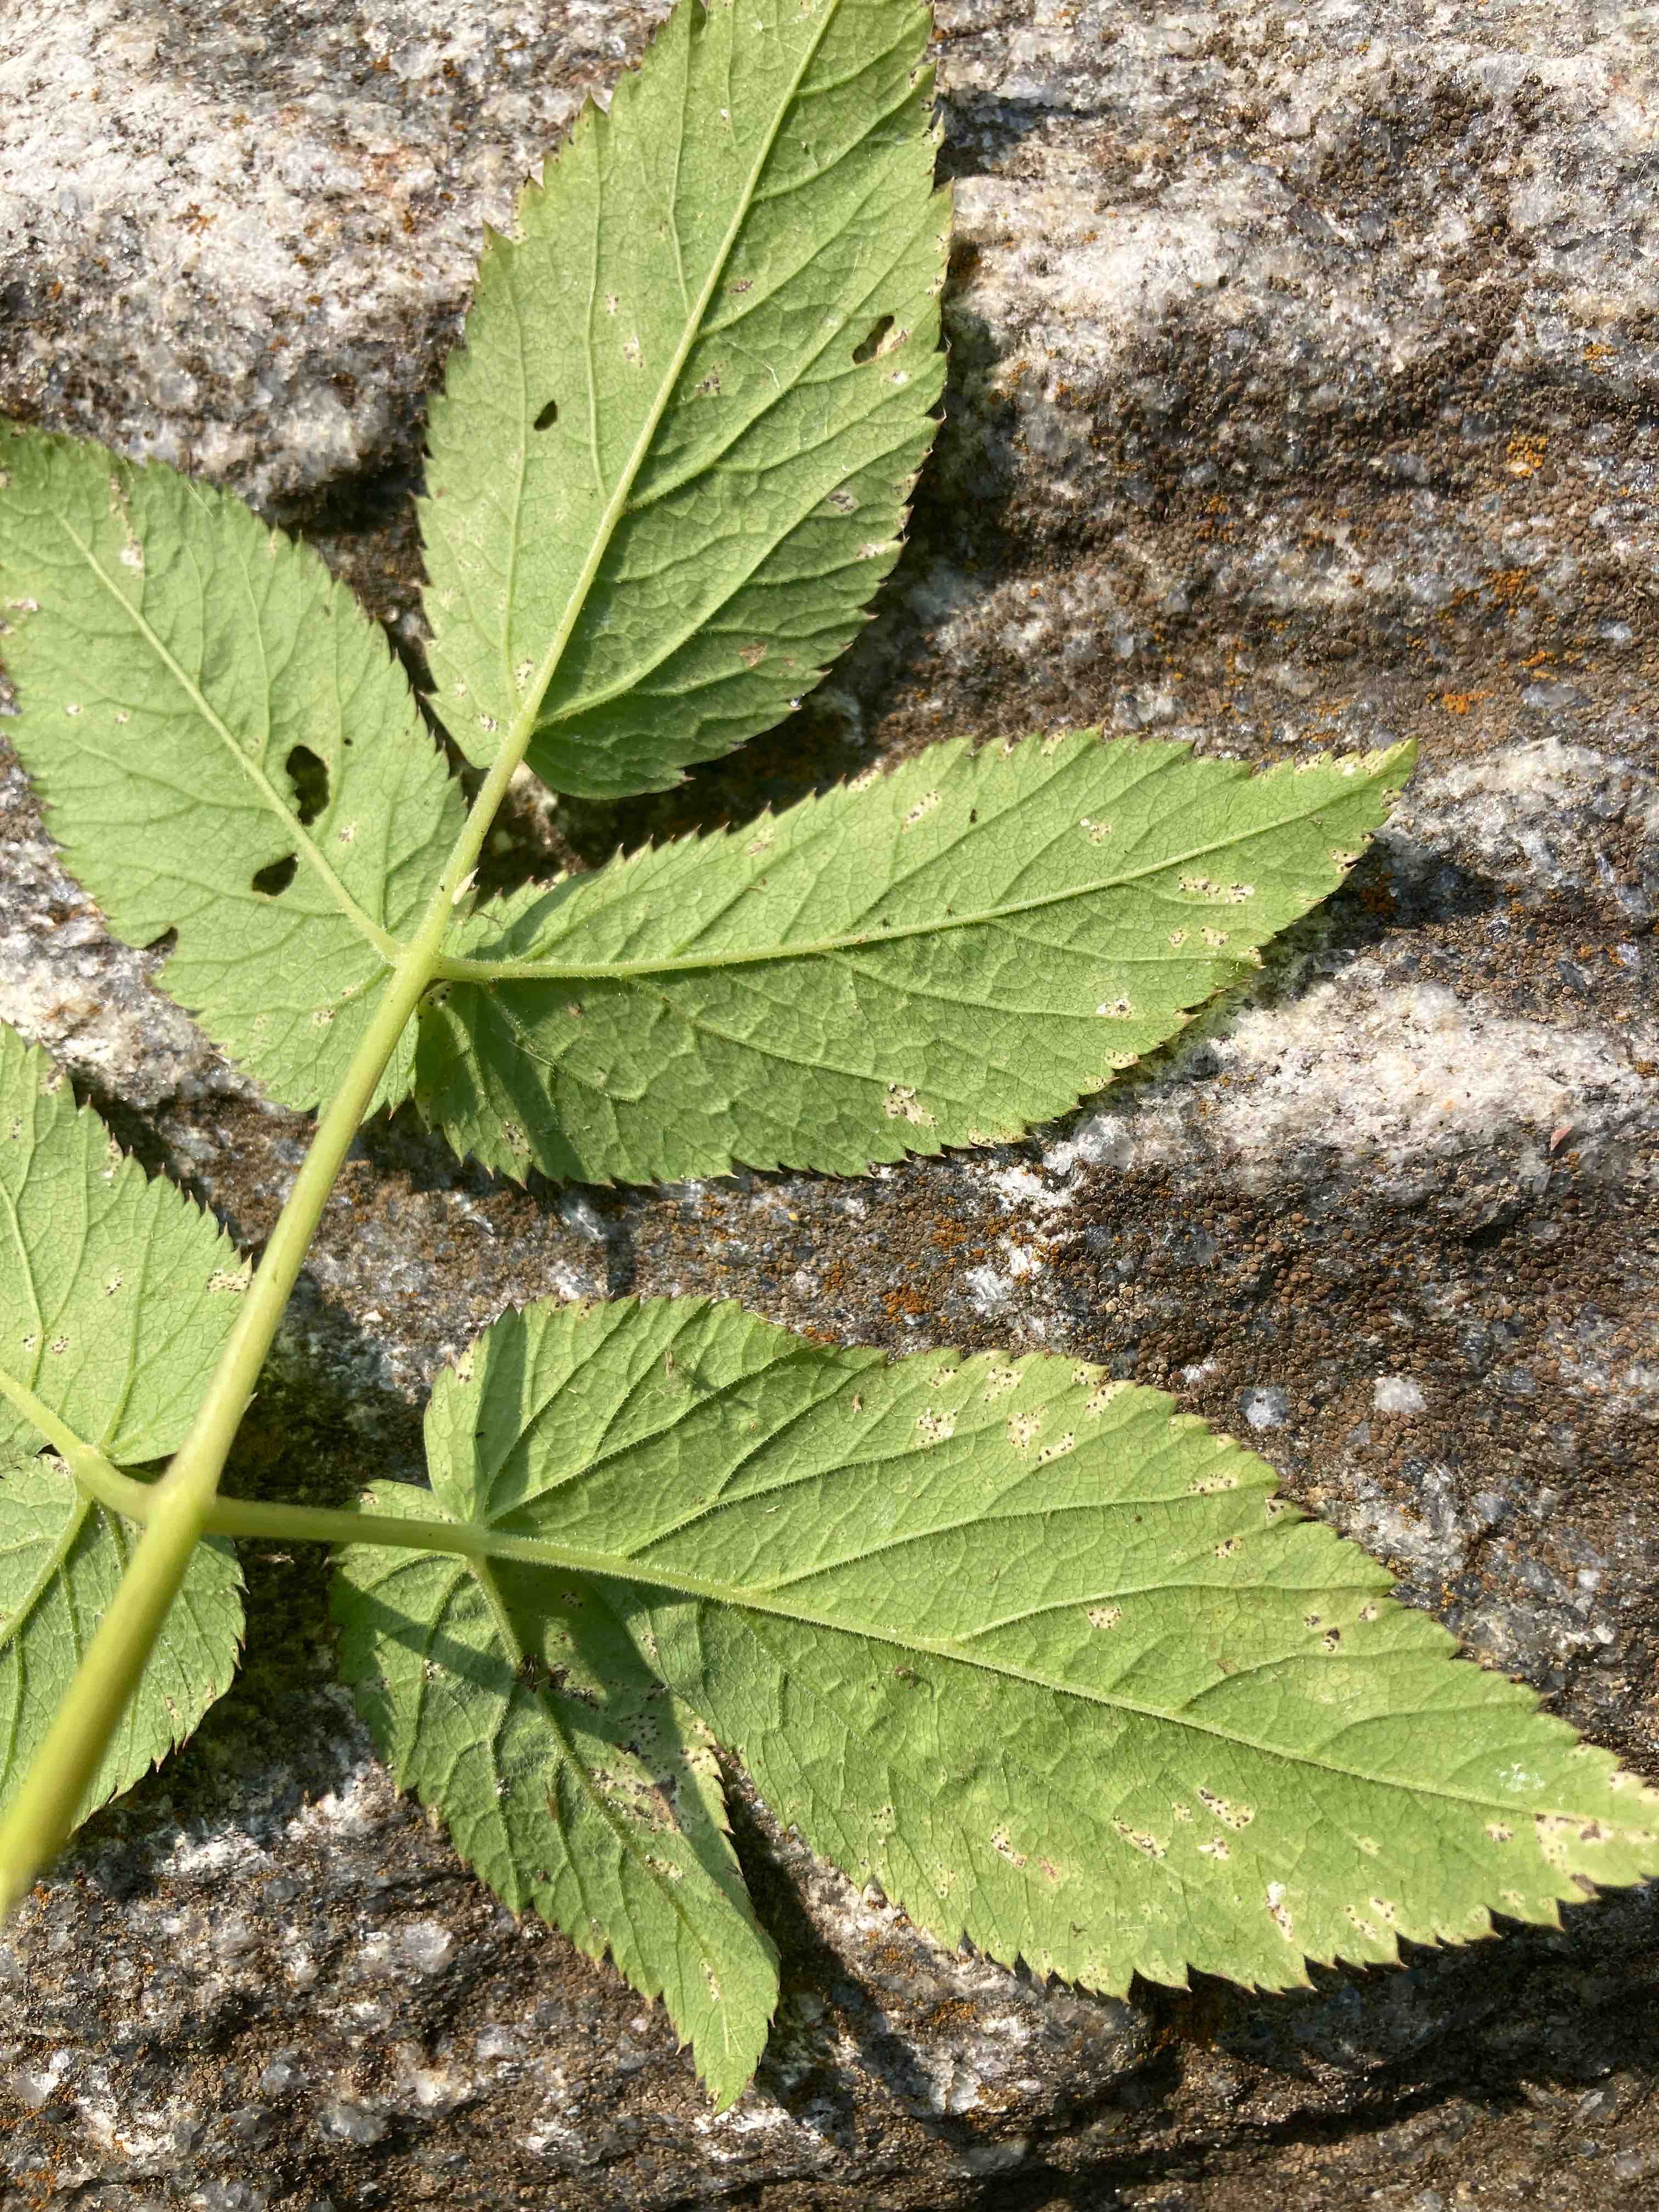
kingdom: Fungi
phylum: Ascomycota
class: Dothideomycetes
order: Mycosphaerellales
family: Mycosphaerellaceae
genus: Mycosphaerella
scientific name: Mycosphaerella podagrariae
